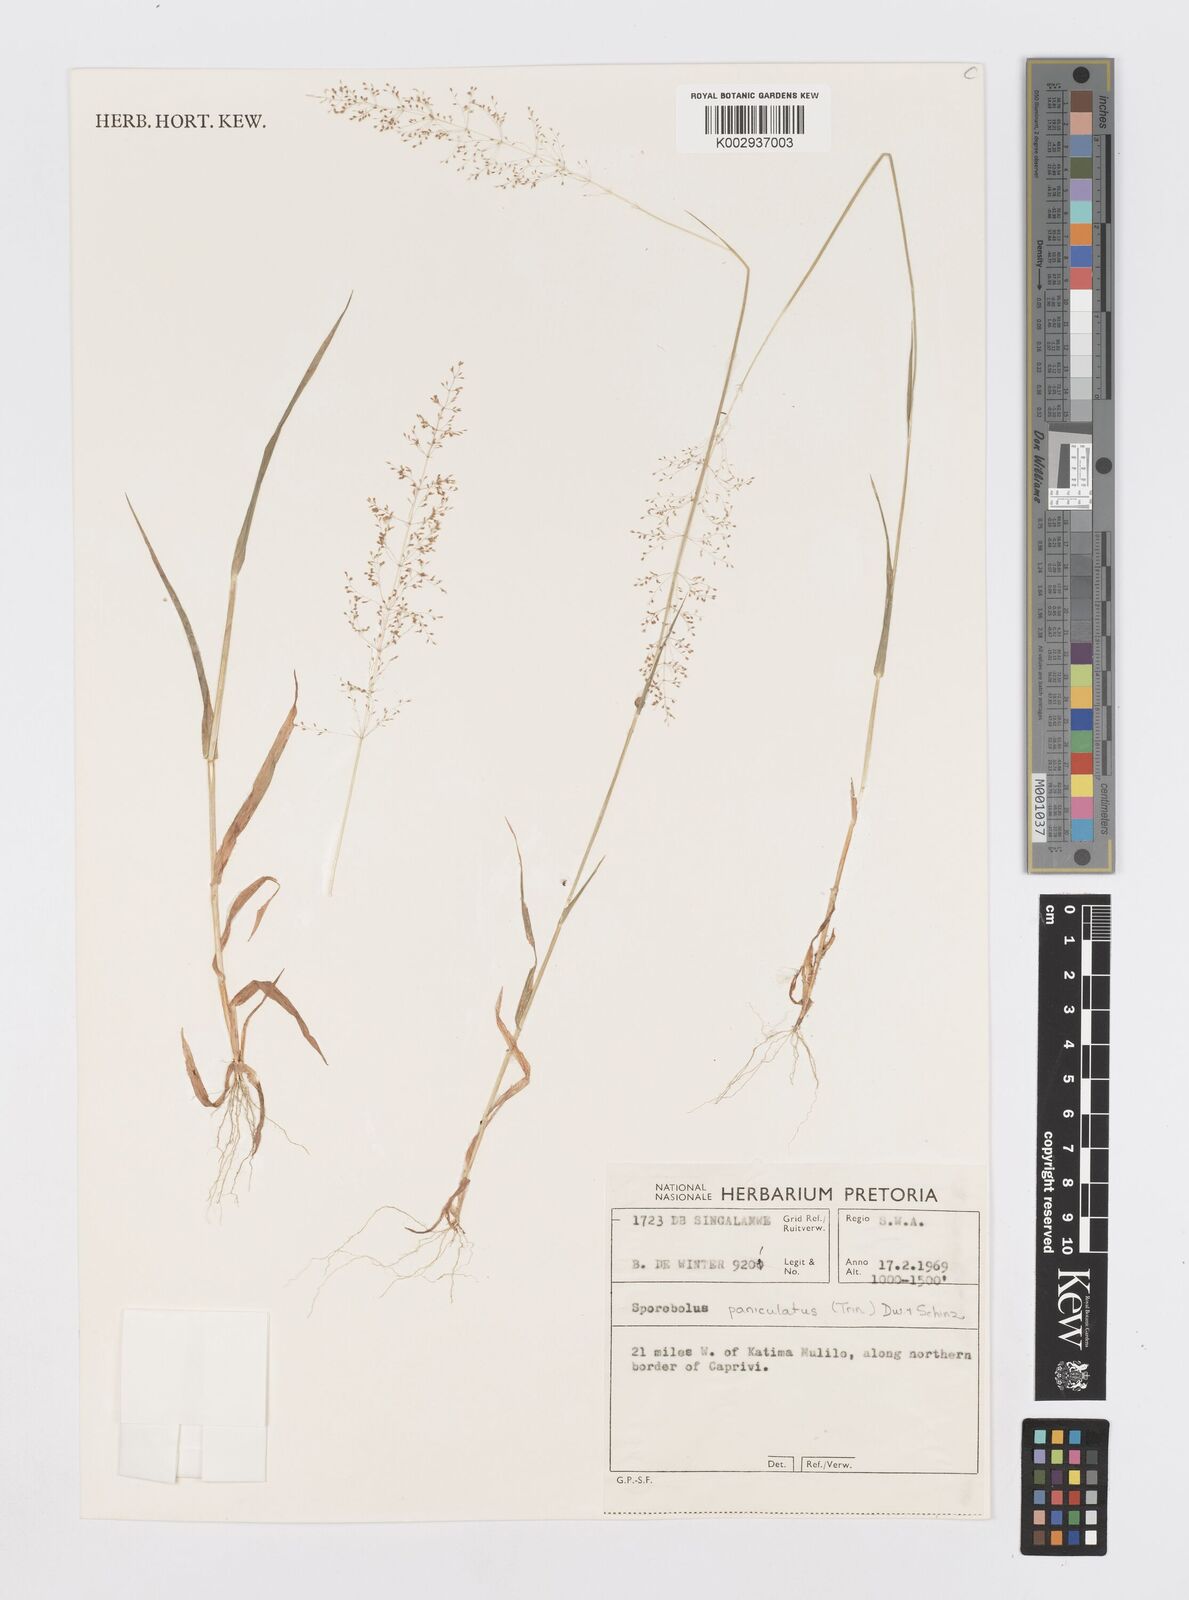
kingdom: Plantae
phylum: Tracheophyta
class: Liliopsida
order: Poales
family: Poaceae
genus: Sporobolus
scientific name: Sporobolus paniculatus
